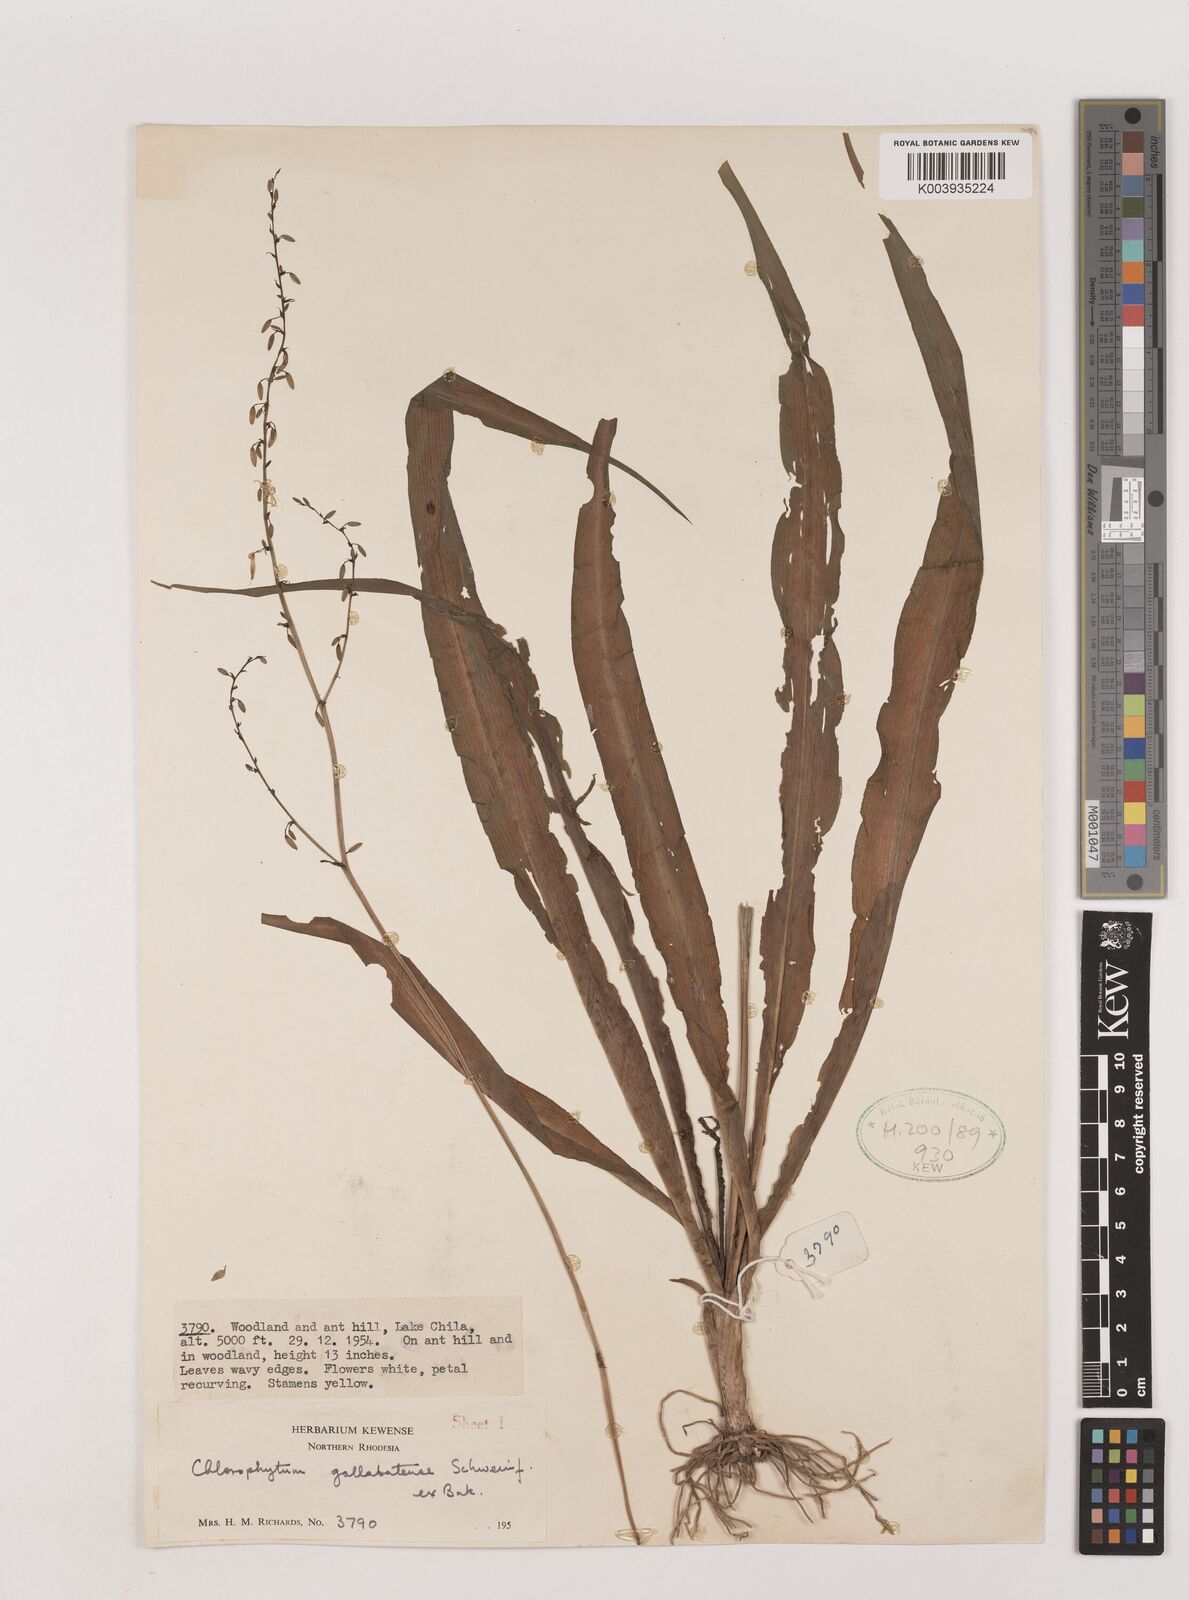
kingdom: Plantae
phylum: Tracheophyta
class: Liliopsida
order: Asparagales
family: Asparagaceae
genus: Chlorophytum
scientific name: Chlorophytum gallabatense
